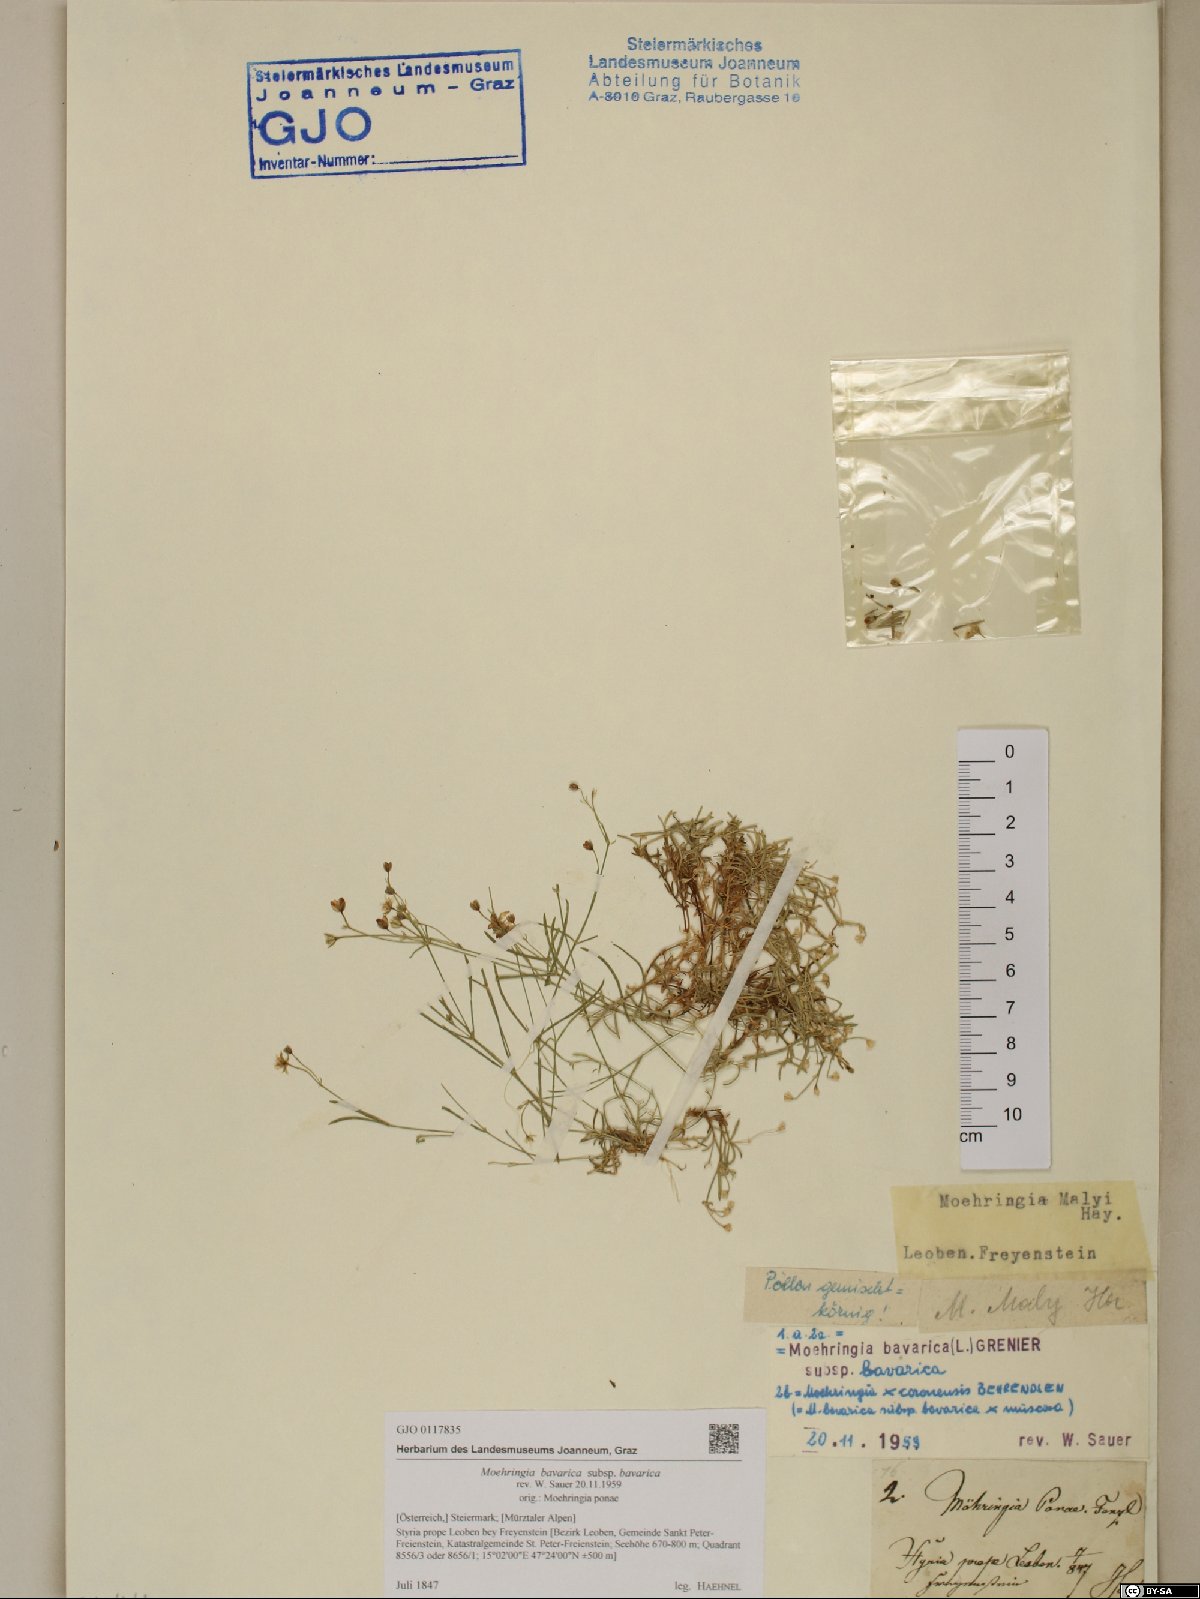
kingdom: Plantae
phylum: Tracheophyta
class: Magnoliopsida
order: Caryophyllales
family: Caryophyllaceae
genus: Moehringia
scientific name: Moehringia bavarica
